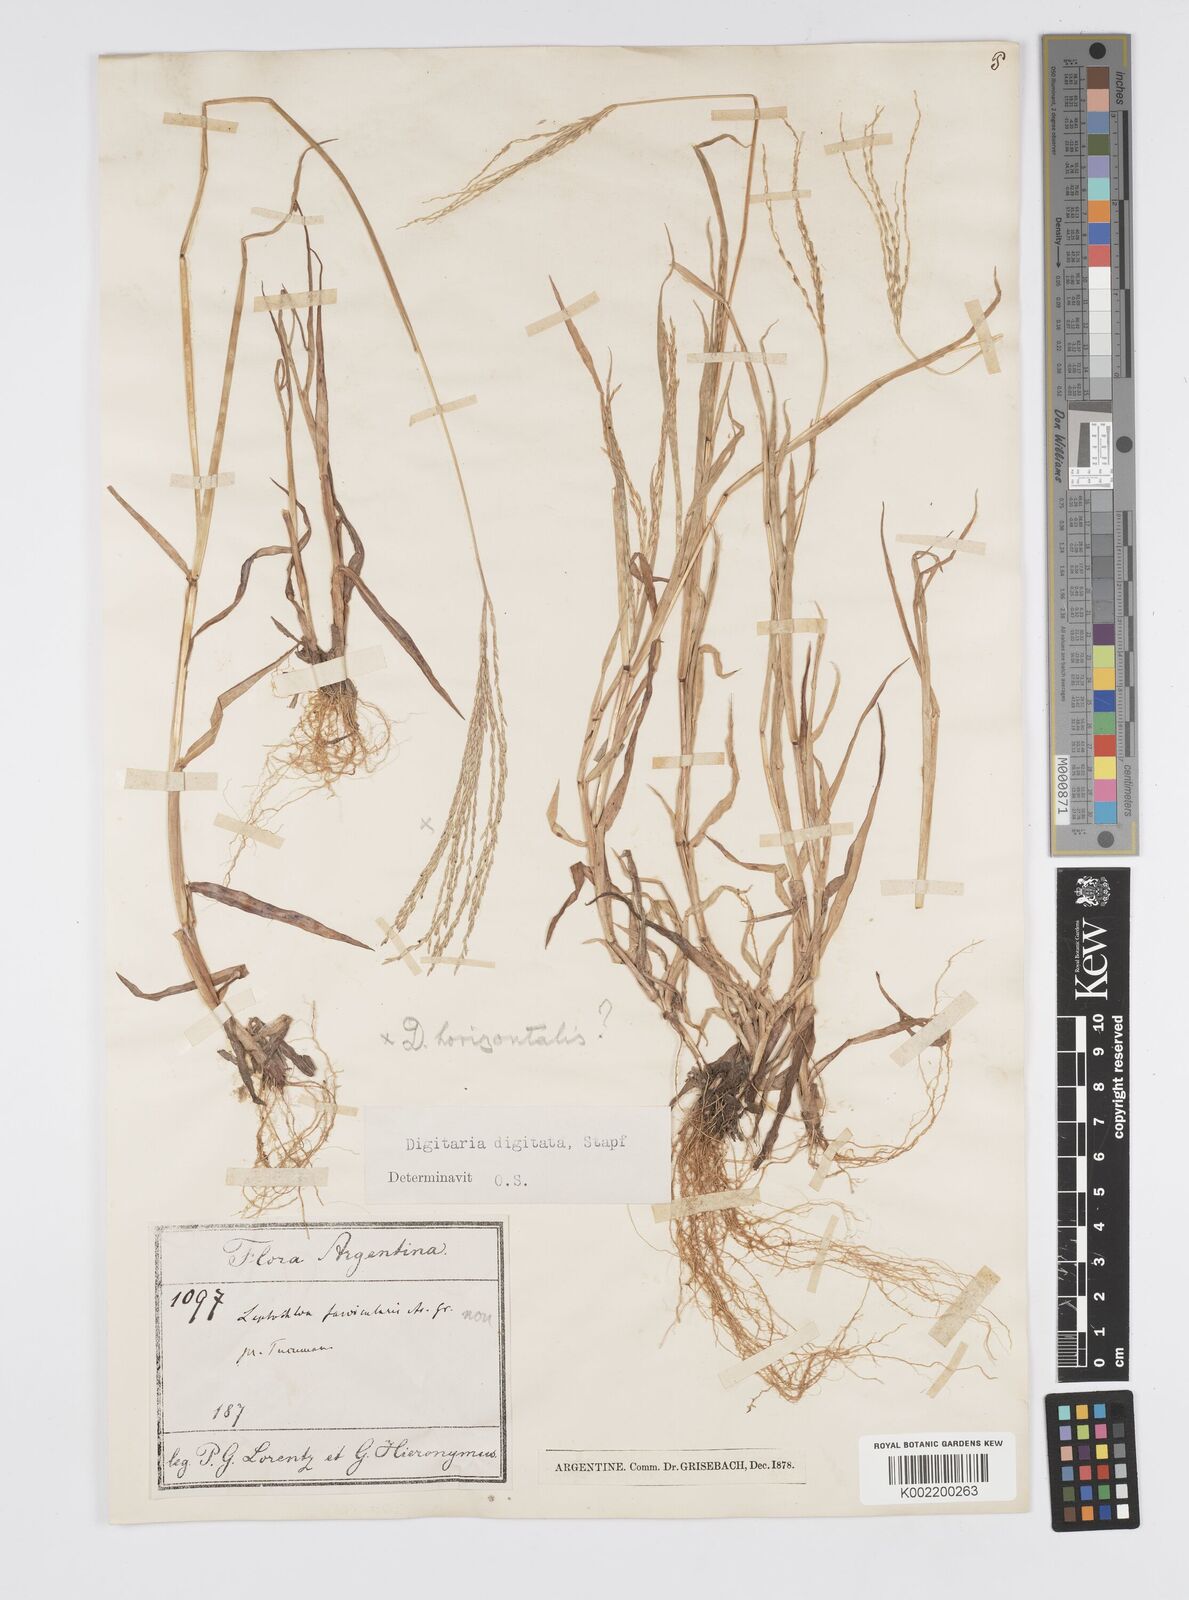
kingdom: Plantae
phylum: Tracheophyta
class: Liliopsida
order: Poales
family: Poaceae
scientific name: Poaceae
